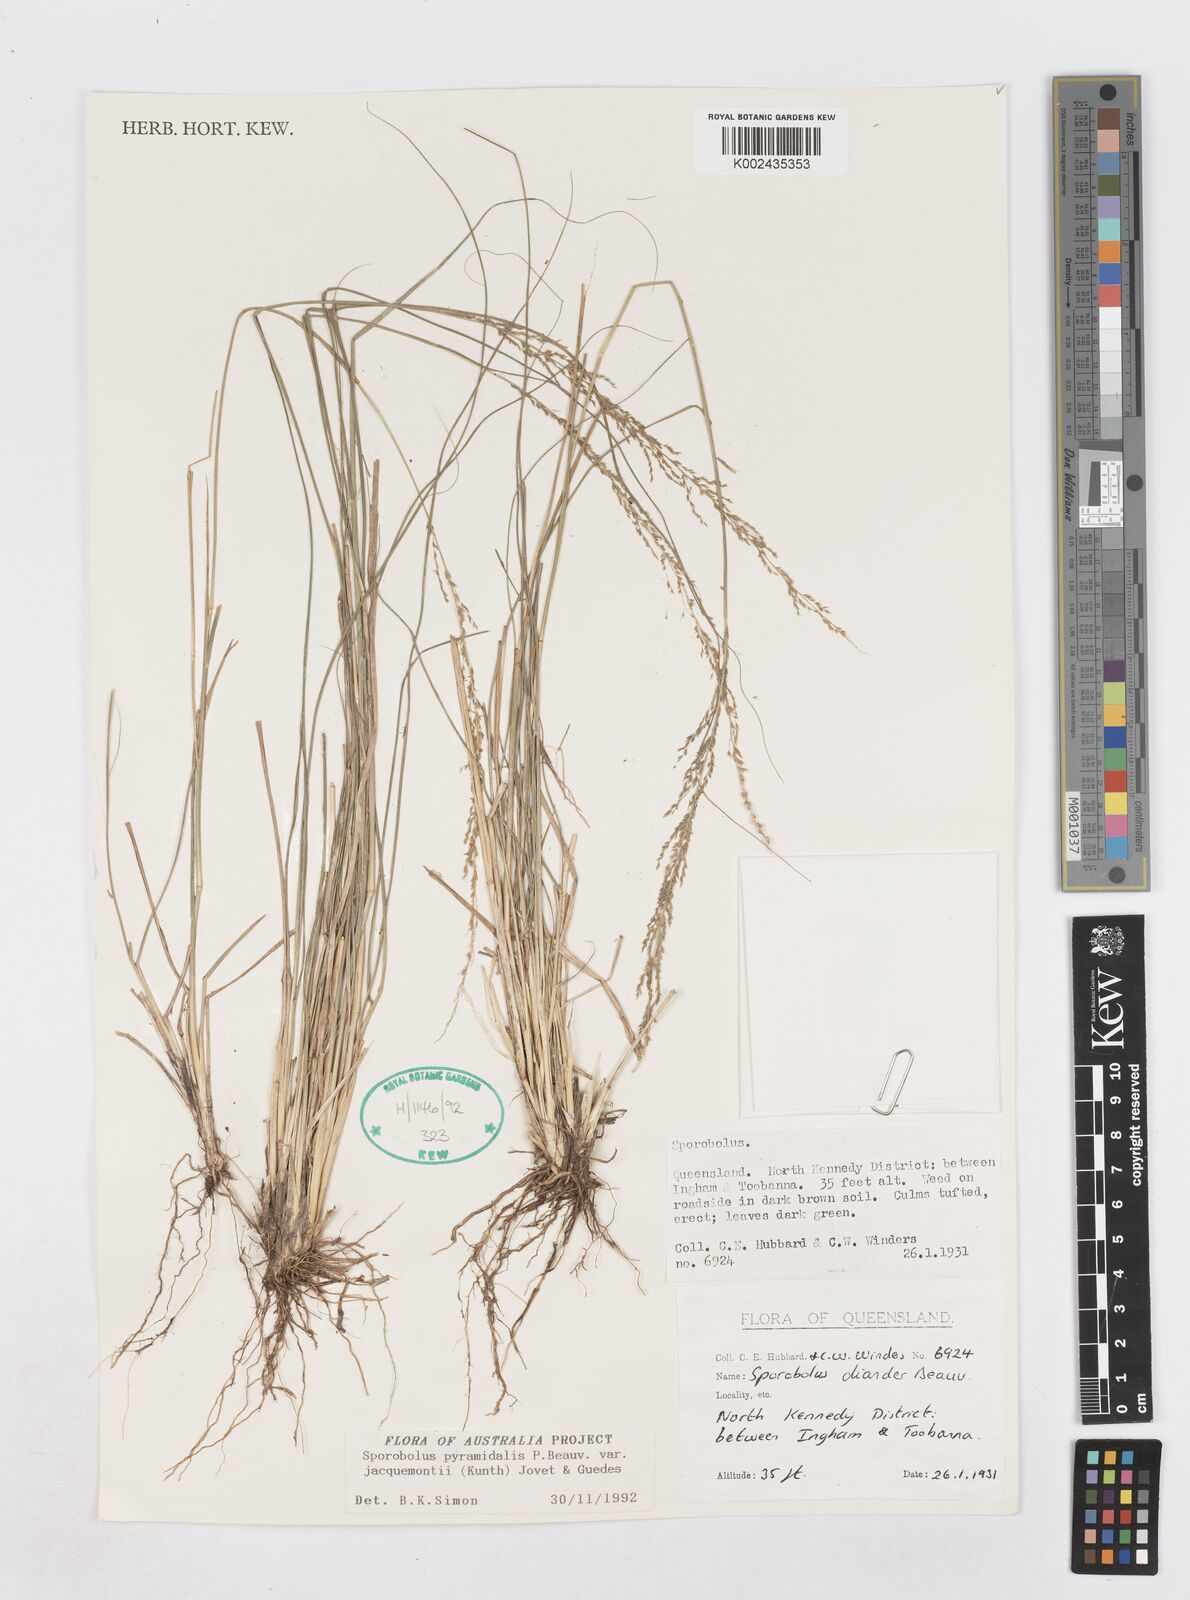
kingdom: Plantae
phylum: Tracheophyta
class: Liliopsida
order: Poales
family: Poaceae
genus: Sporobolus
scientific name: Sporobolus pyramidalis
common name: West indian dropseed
